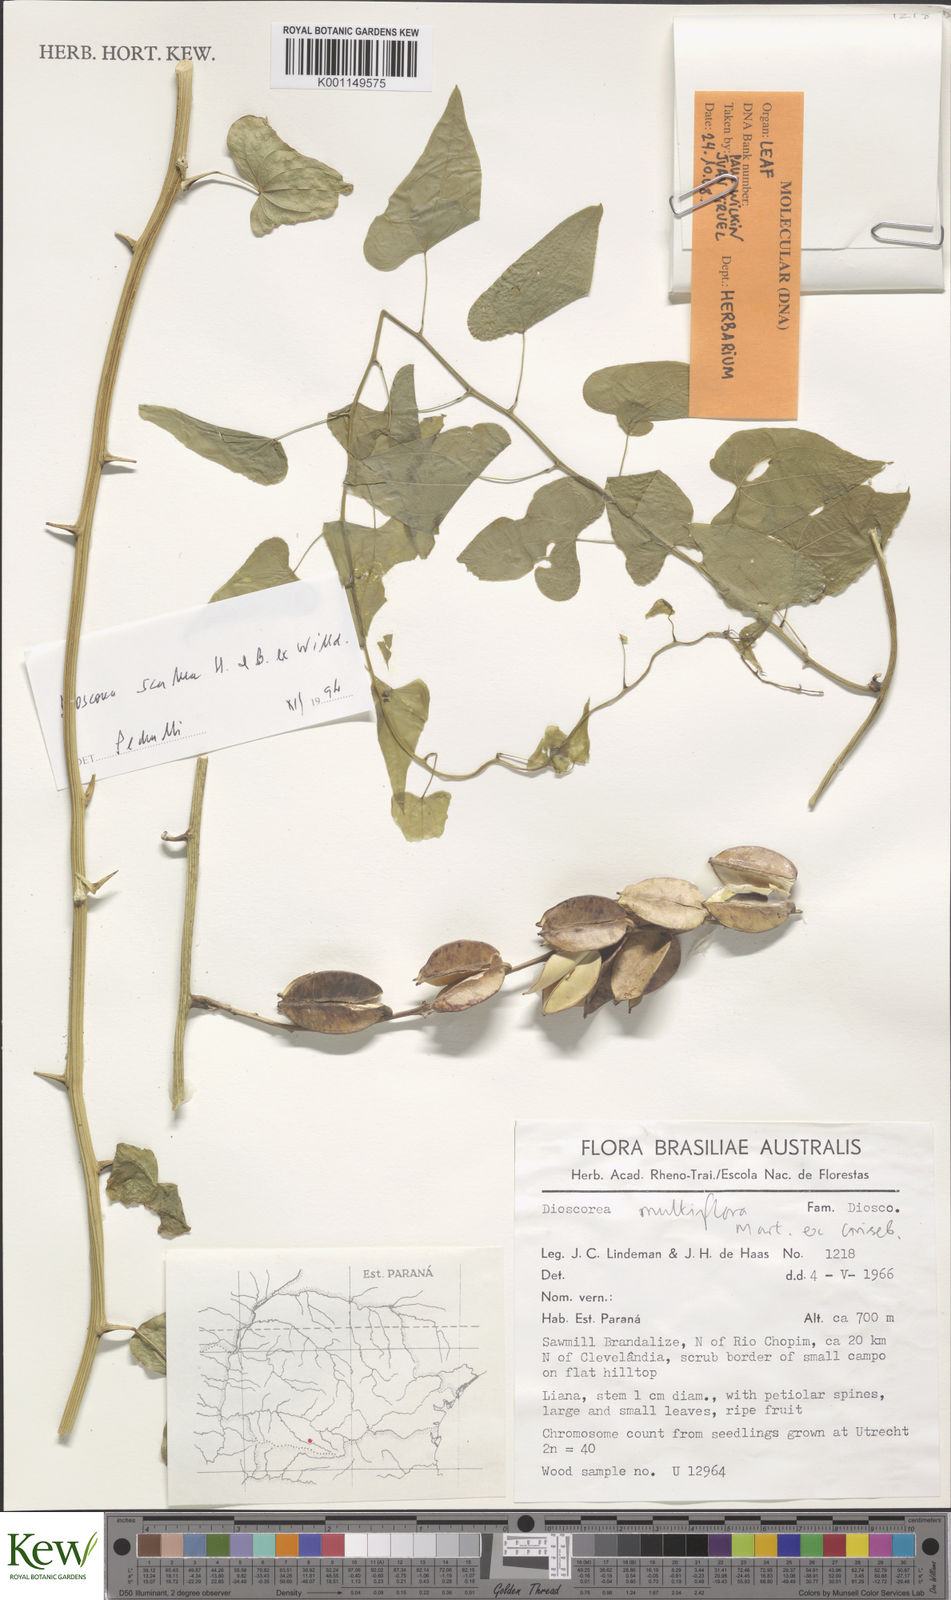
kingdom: Plantae
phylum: Tracheophyta
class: Liliopsida
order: Dioscoreales
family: Dioscoreaceae
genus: Dioscorea
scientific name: Dioscorea multiflora
